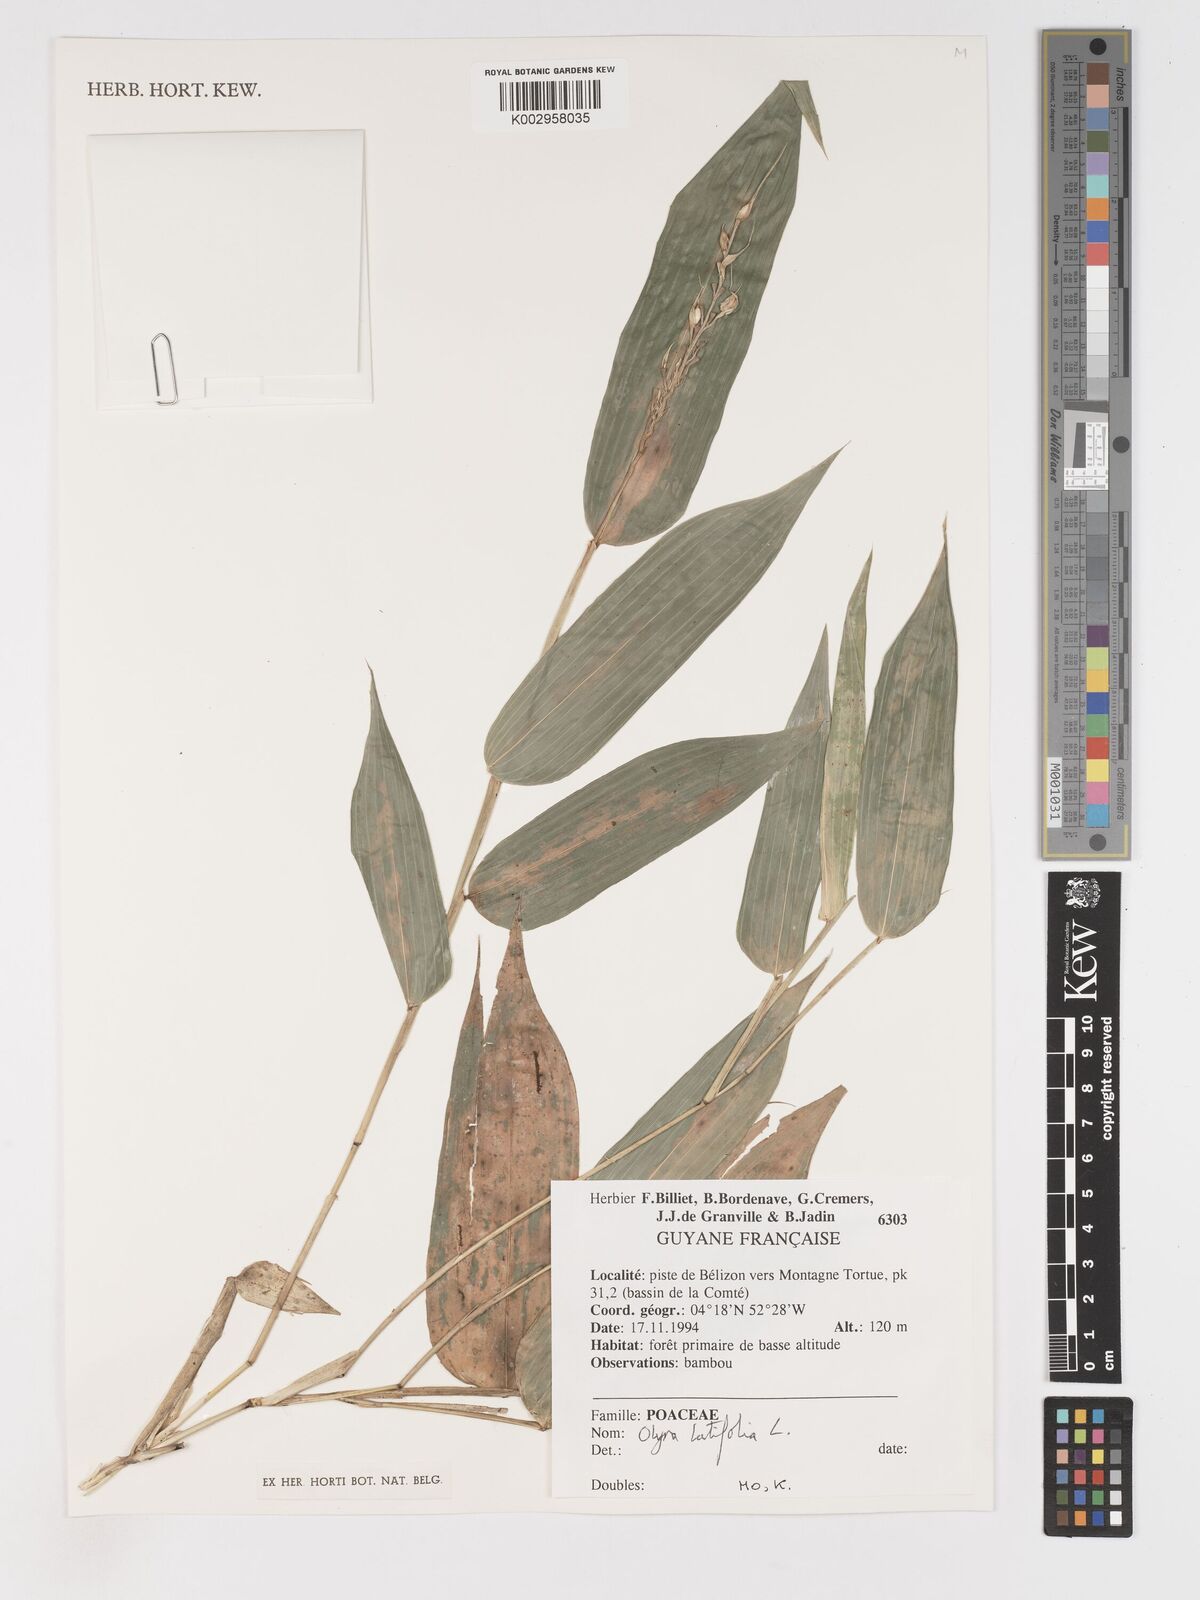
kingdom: Plantae
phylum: Tracheophyta
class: Liliopsida
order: Poales
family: Poaceae
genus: Olyra
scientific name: Olyra latifolia
